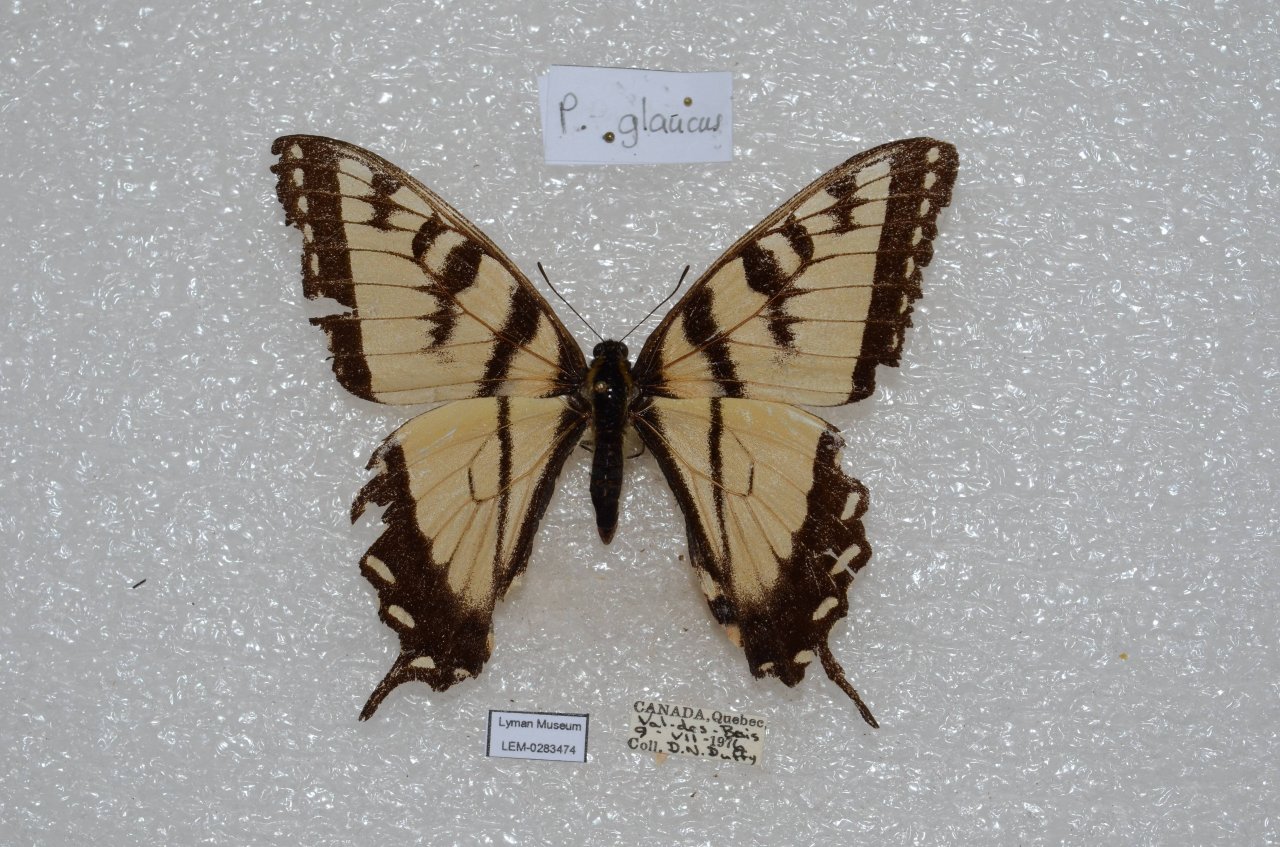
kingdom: Animalia
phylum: Arthropoda
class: Insecta
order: Lepidoptera
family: Papilionidae
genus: Pterourus
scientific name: Pterourus canadensis
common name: Canadian Tiger Swallowtail
